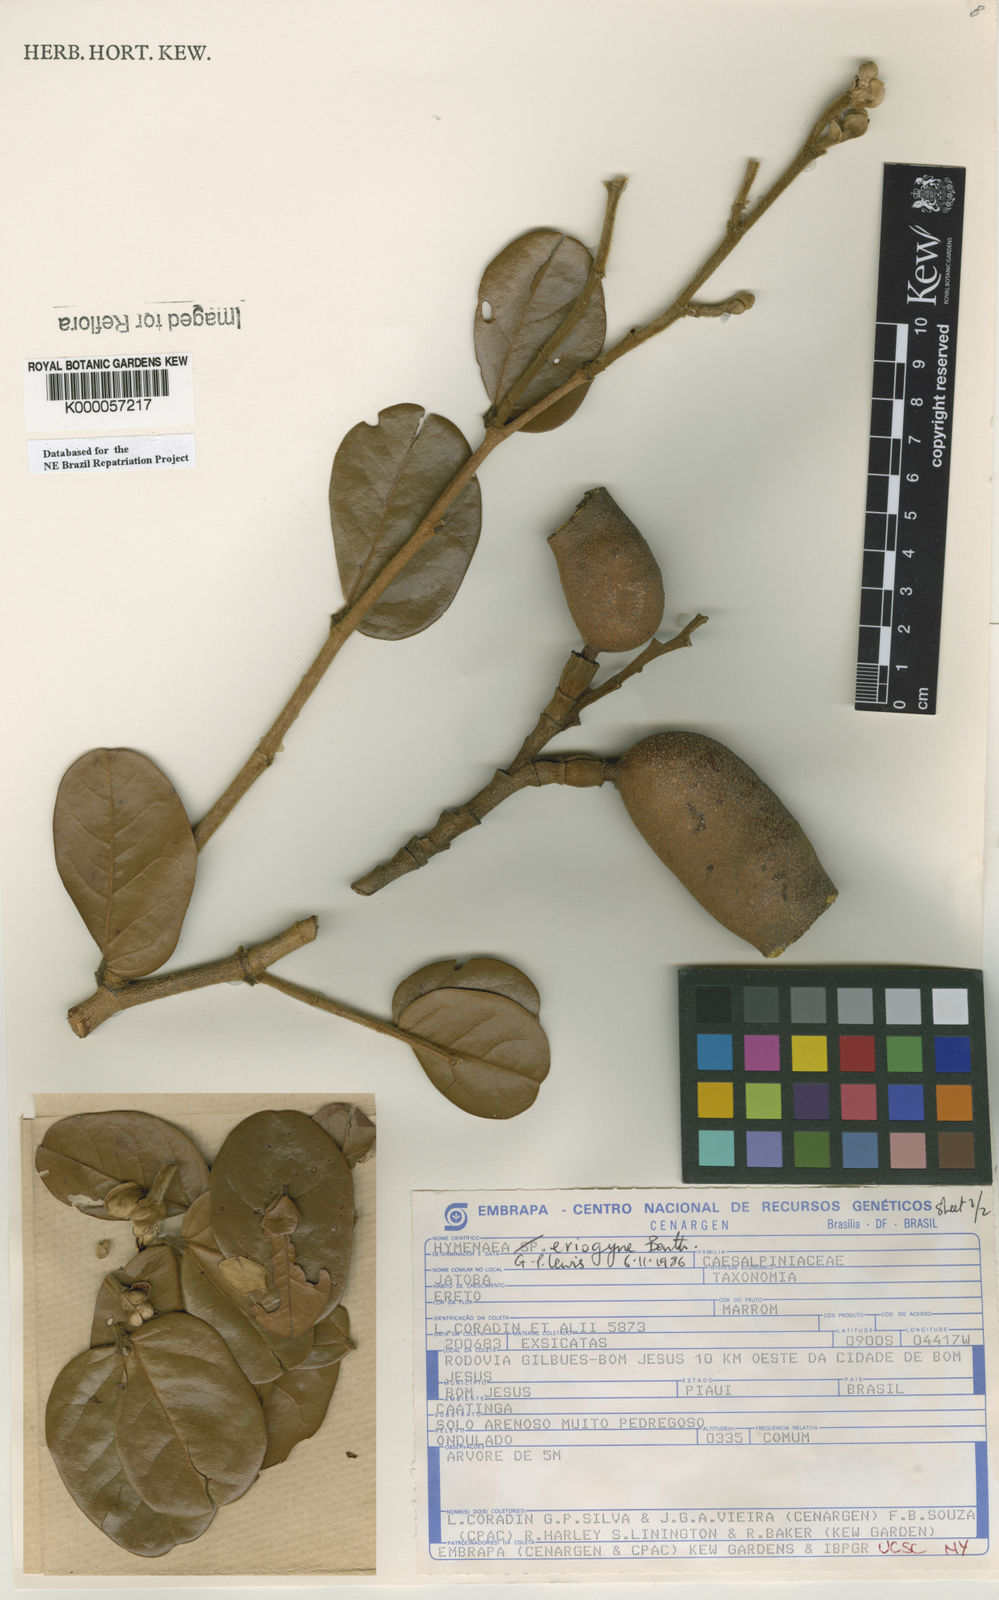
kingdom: Plantae
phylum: Tracheophyta
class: Magnoliopsida
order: Fabales
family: Fabaceae
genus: Hymenaea
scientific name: Hymenaea eriogyne
